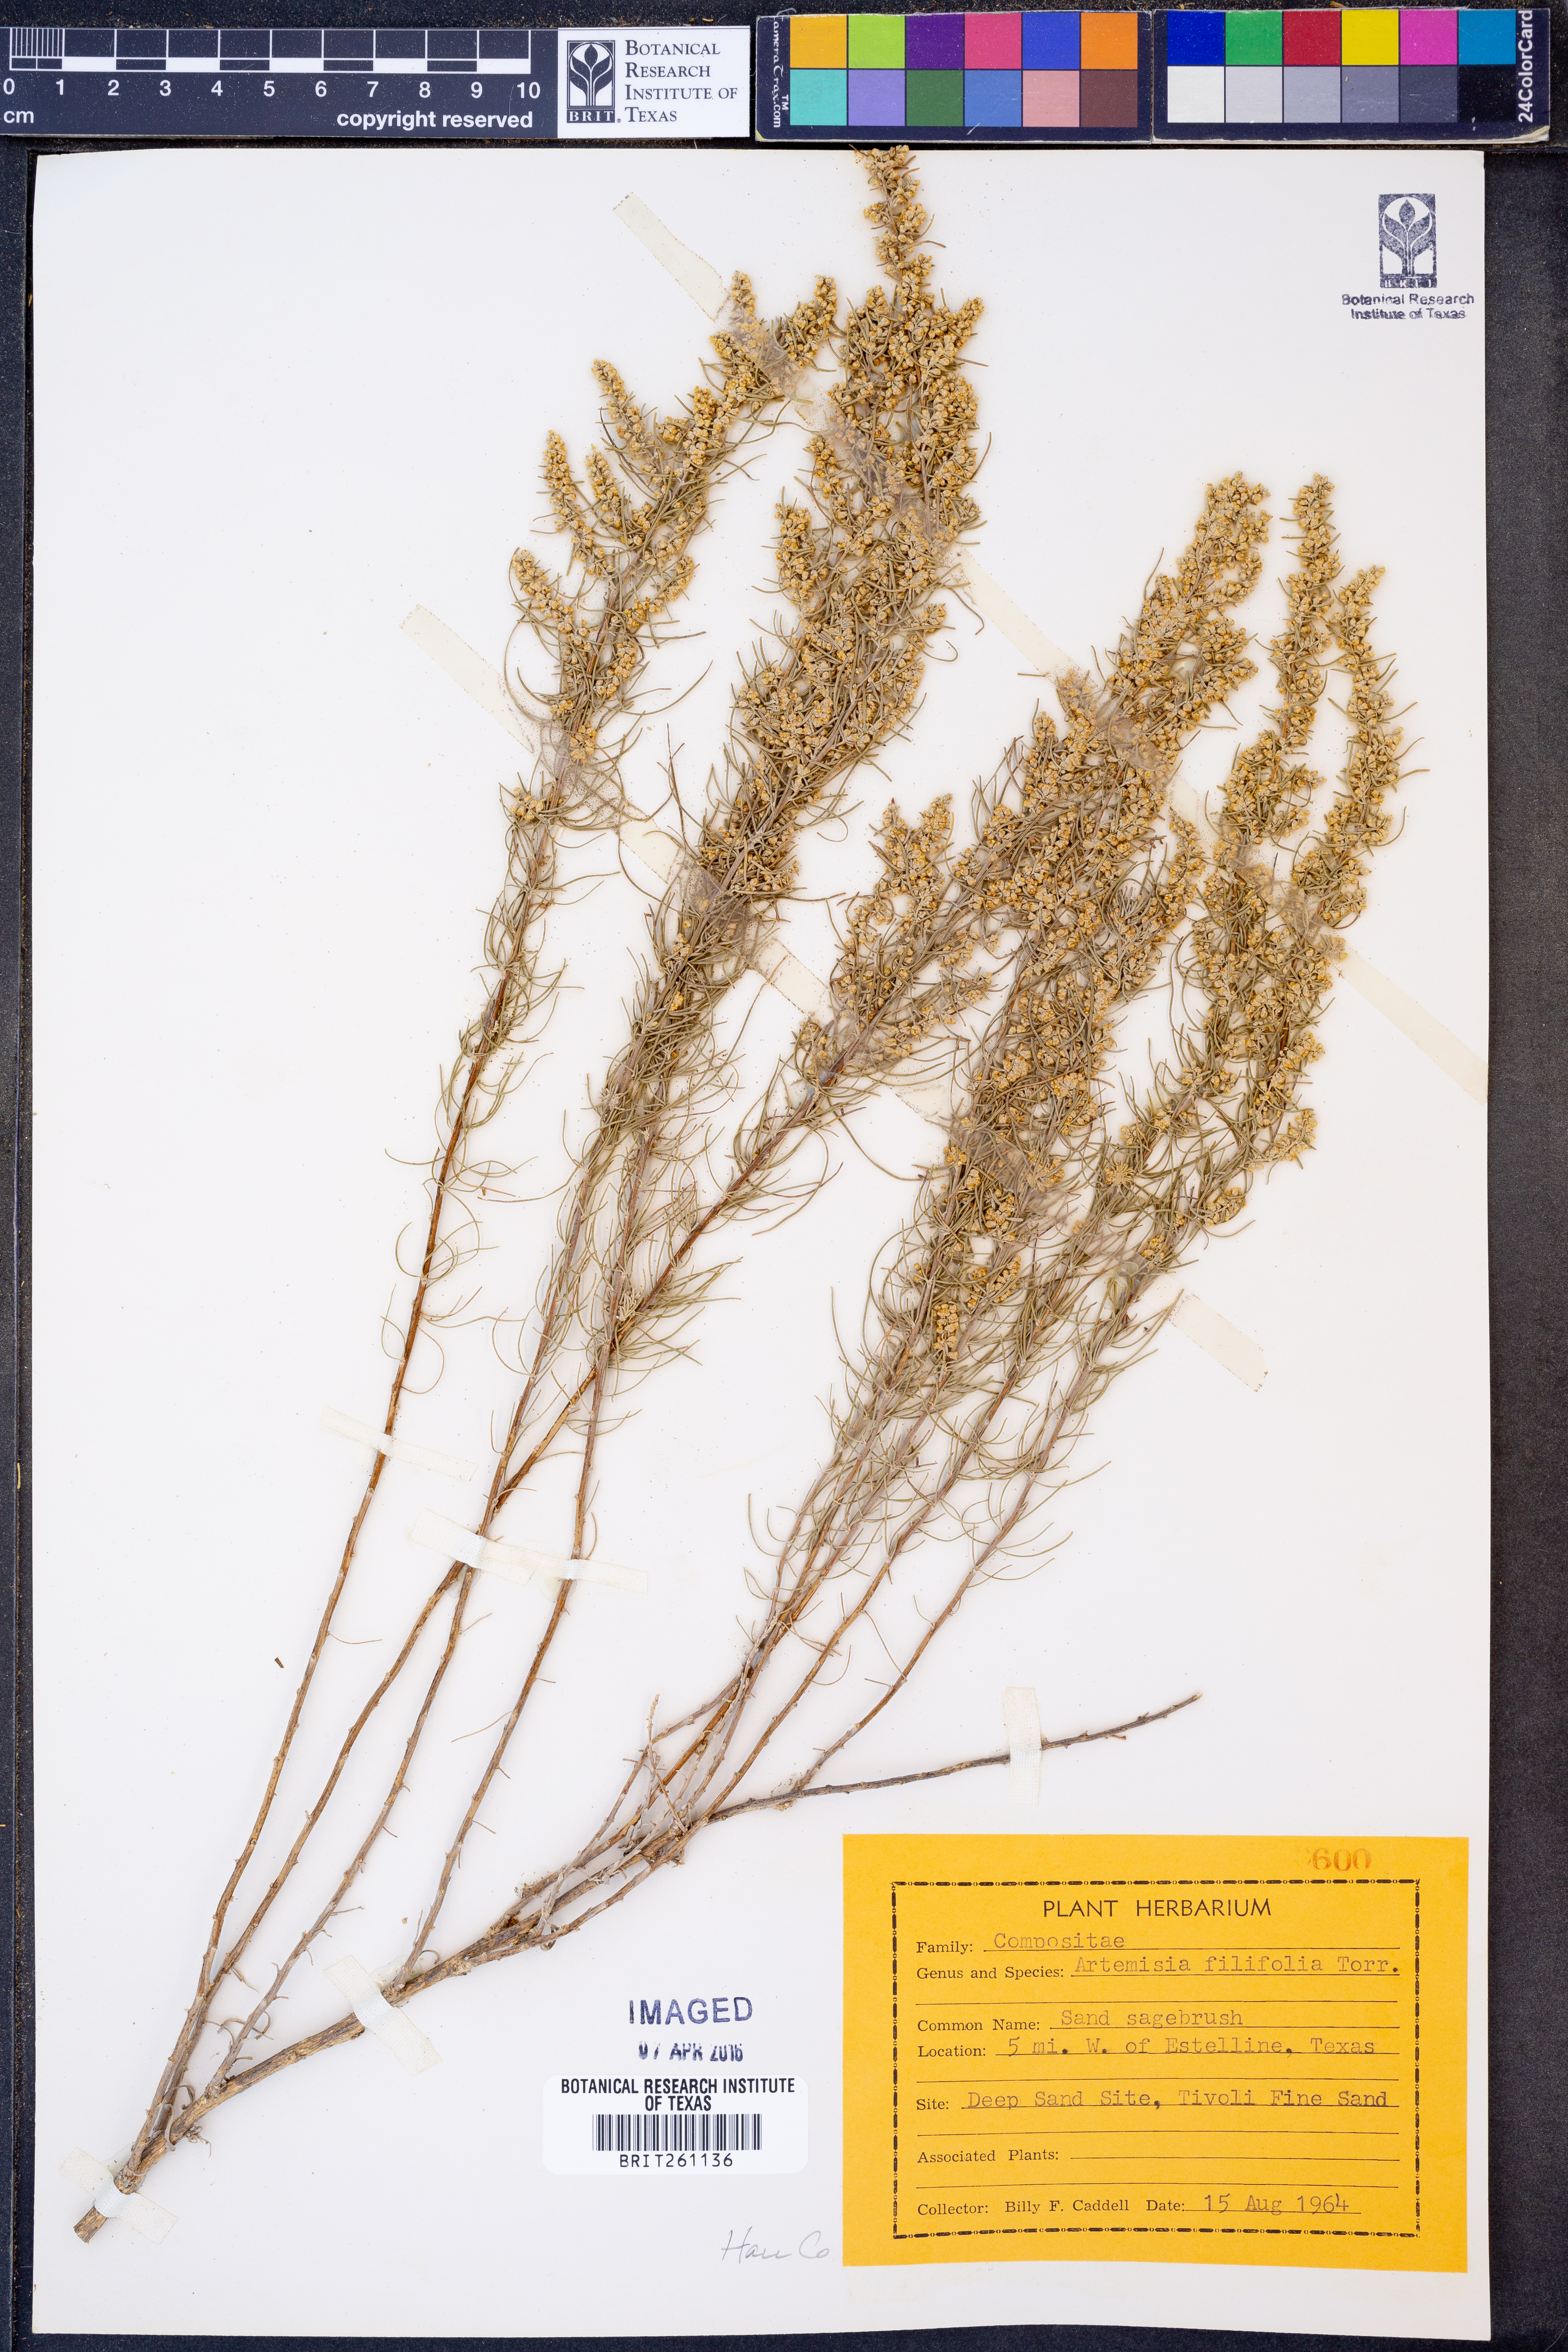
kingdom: Plantae
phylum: Tracheophyta
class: Magnoliopsida
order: Asterales
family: Asteraceae
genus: Artemisia
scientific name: Artemisia filifolia
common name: Sand-sage
